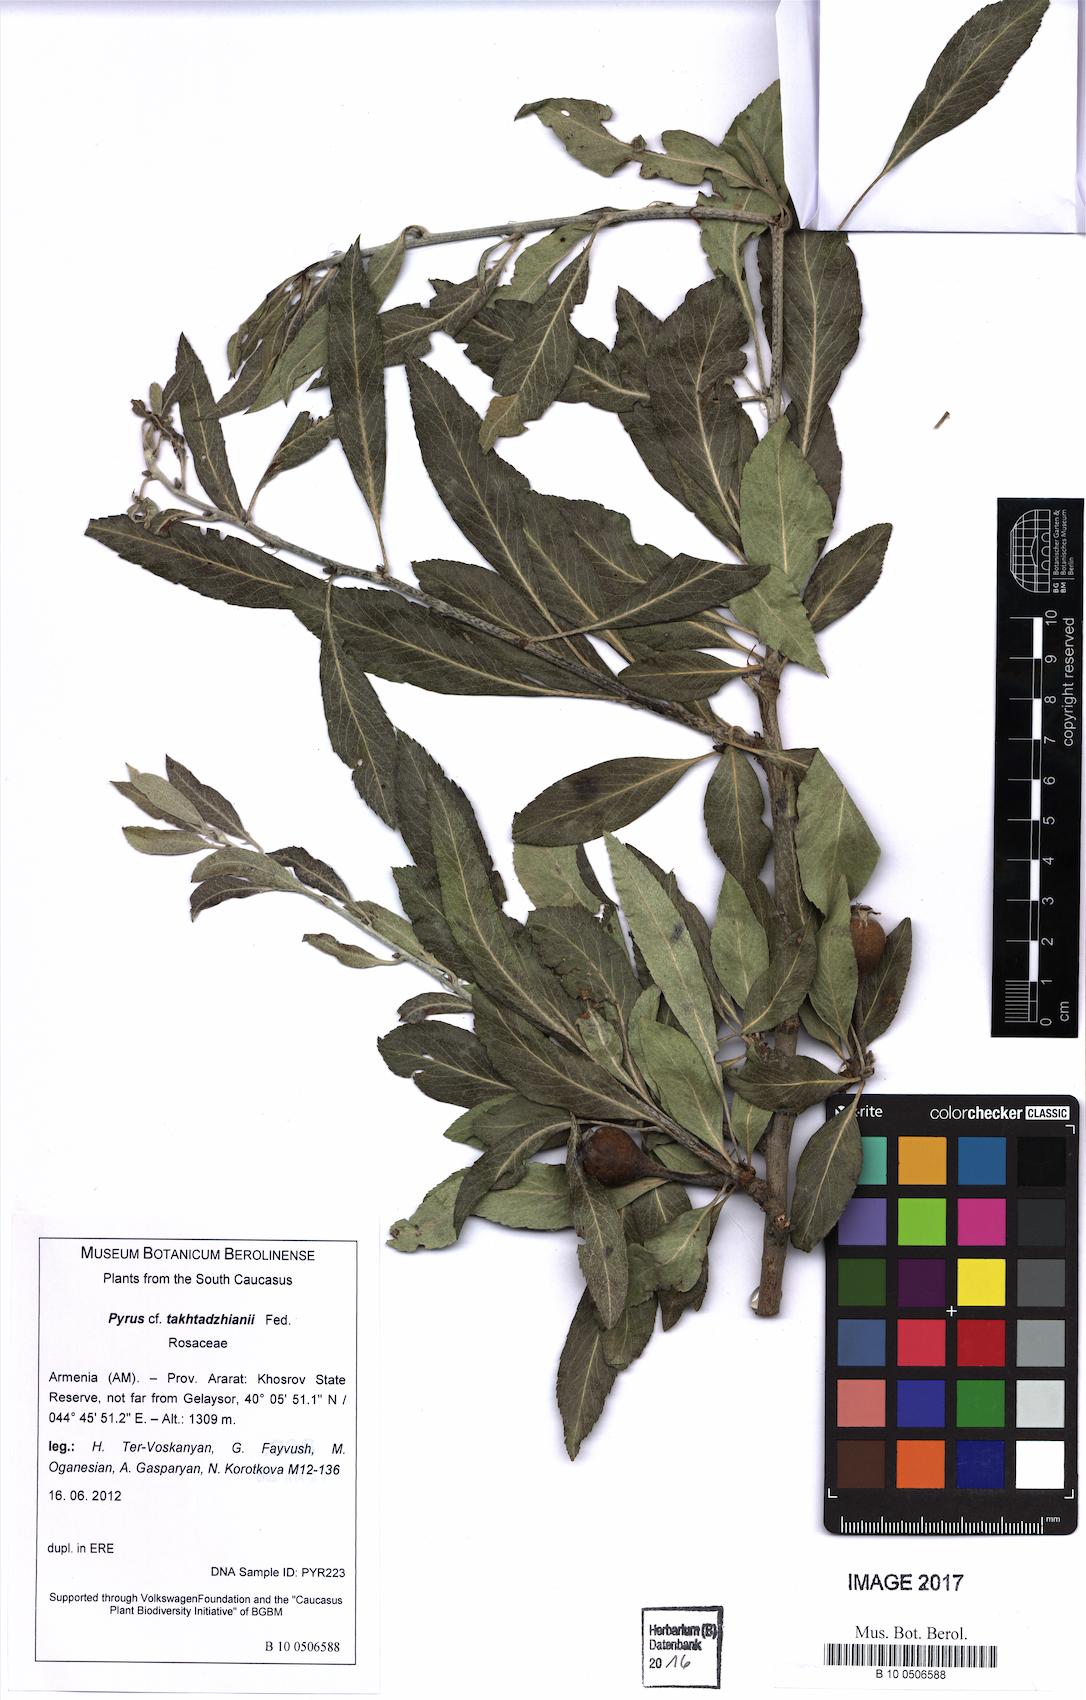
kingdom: Plantae
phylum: Tracheophyta
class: Magnoliopsida
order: Rosales
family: Rosaceae
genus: Pyrus
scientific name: Pyrus zangezura
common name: Zangezurian pear
